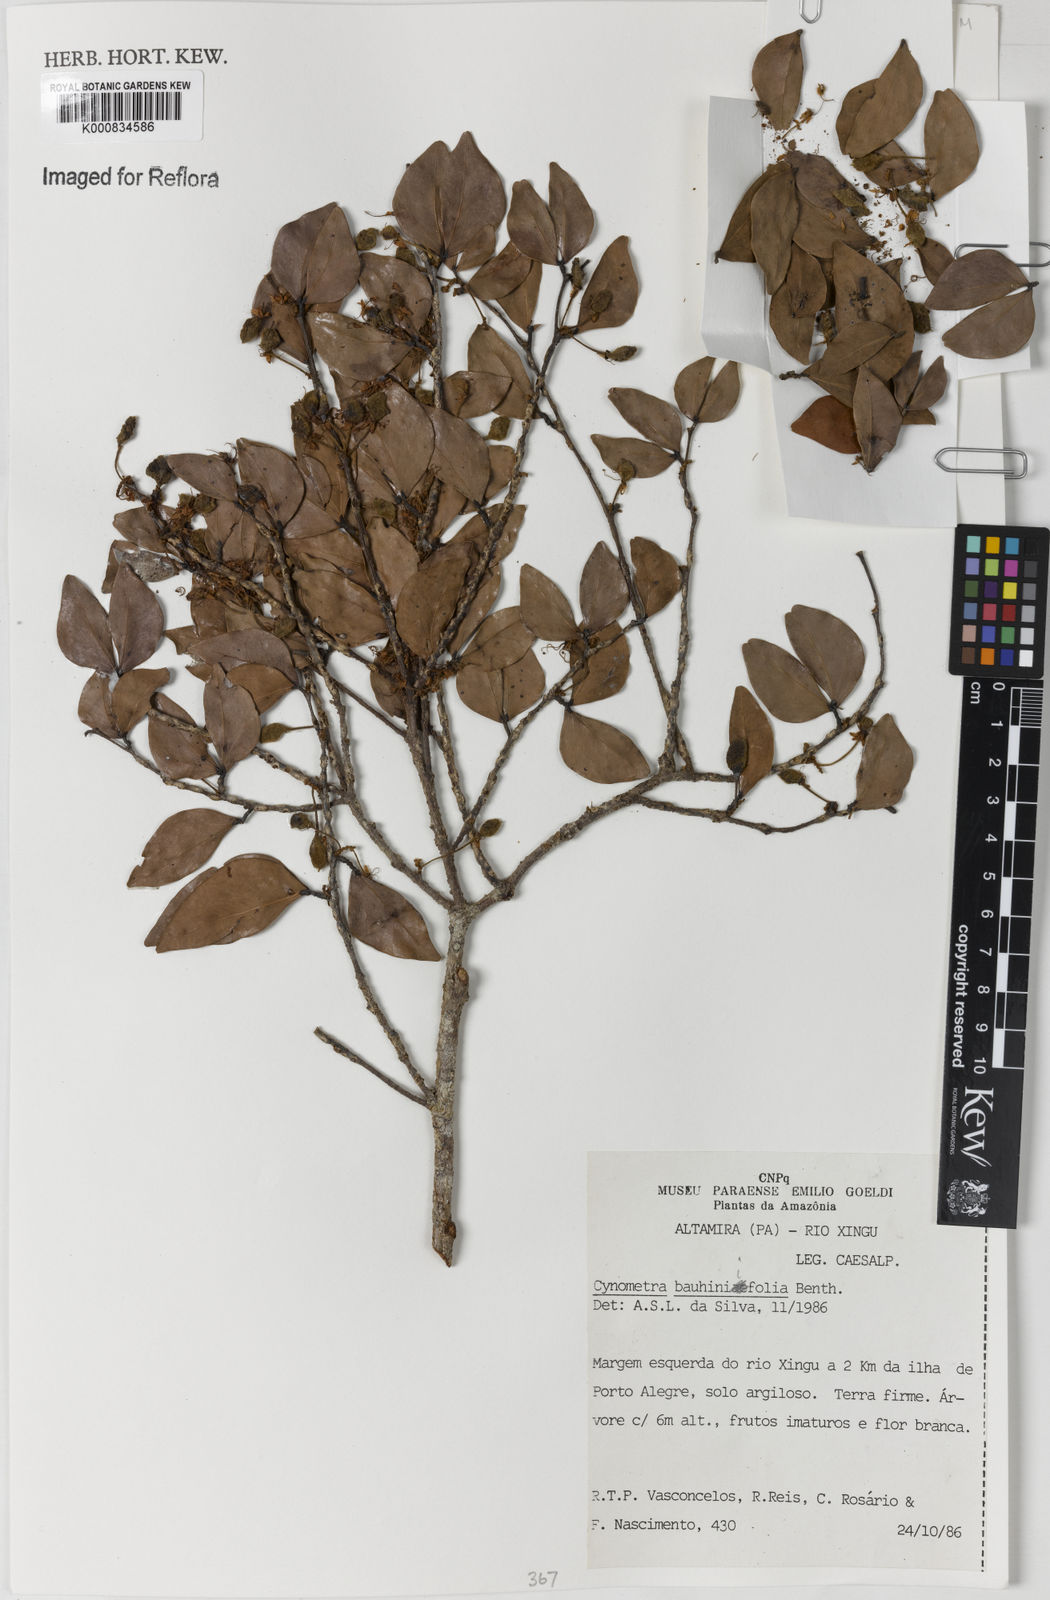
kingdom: Plantae
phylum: Tracheophyta
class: Magnoliopsida
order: Fabales
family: Fabaceae
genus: Cynometra
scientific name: Cynometra bauhiniifolia
